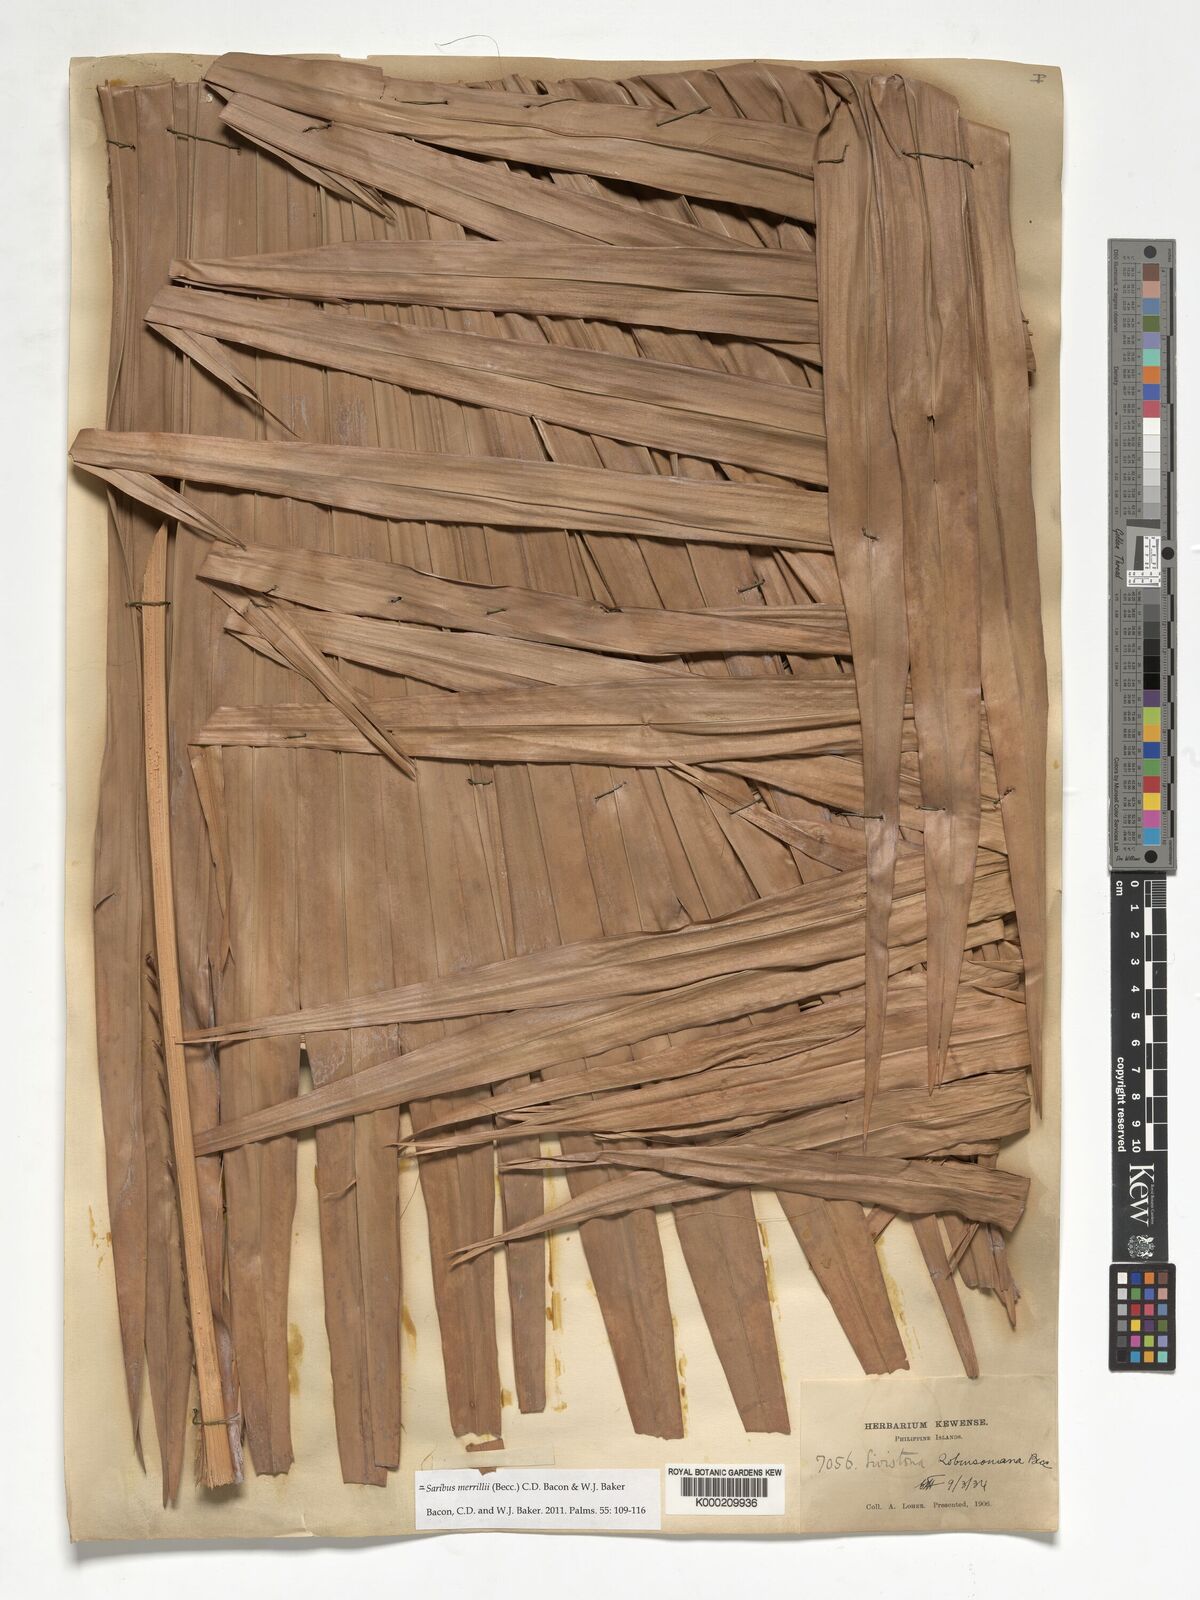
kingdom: Plantae
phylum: Tracheophyta
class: Liliopsida
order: Arecales
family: Arecaceae
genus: Saribus
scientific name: Saribus rotundifolius
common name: Palm
